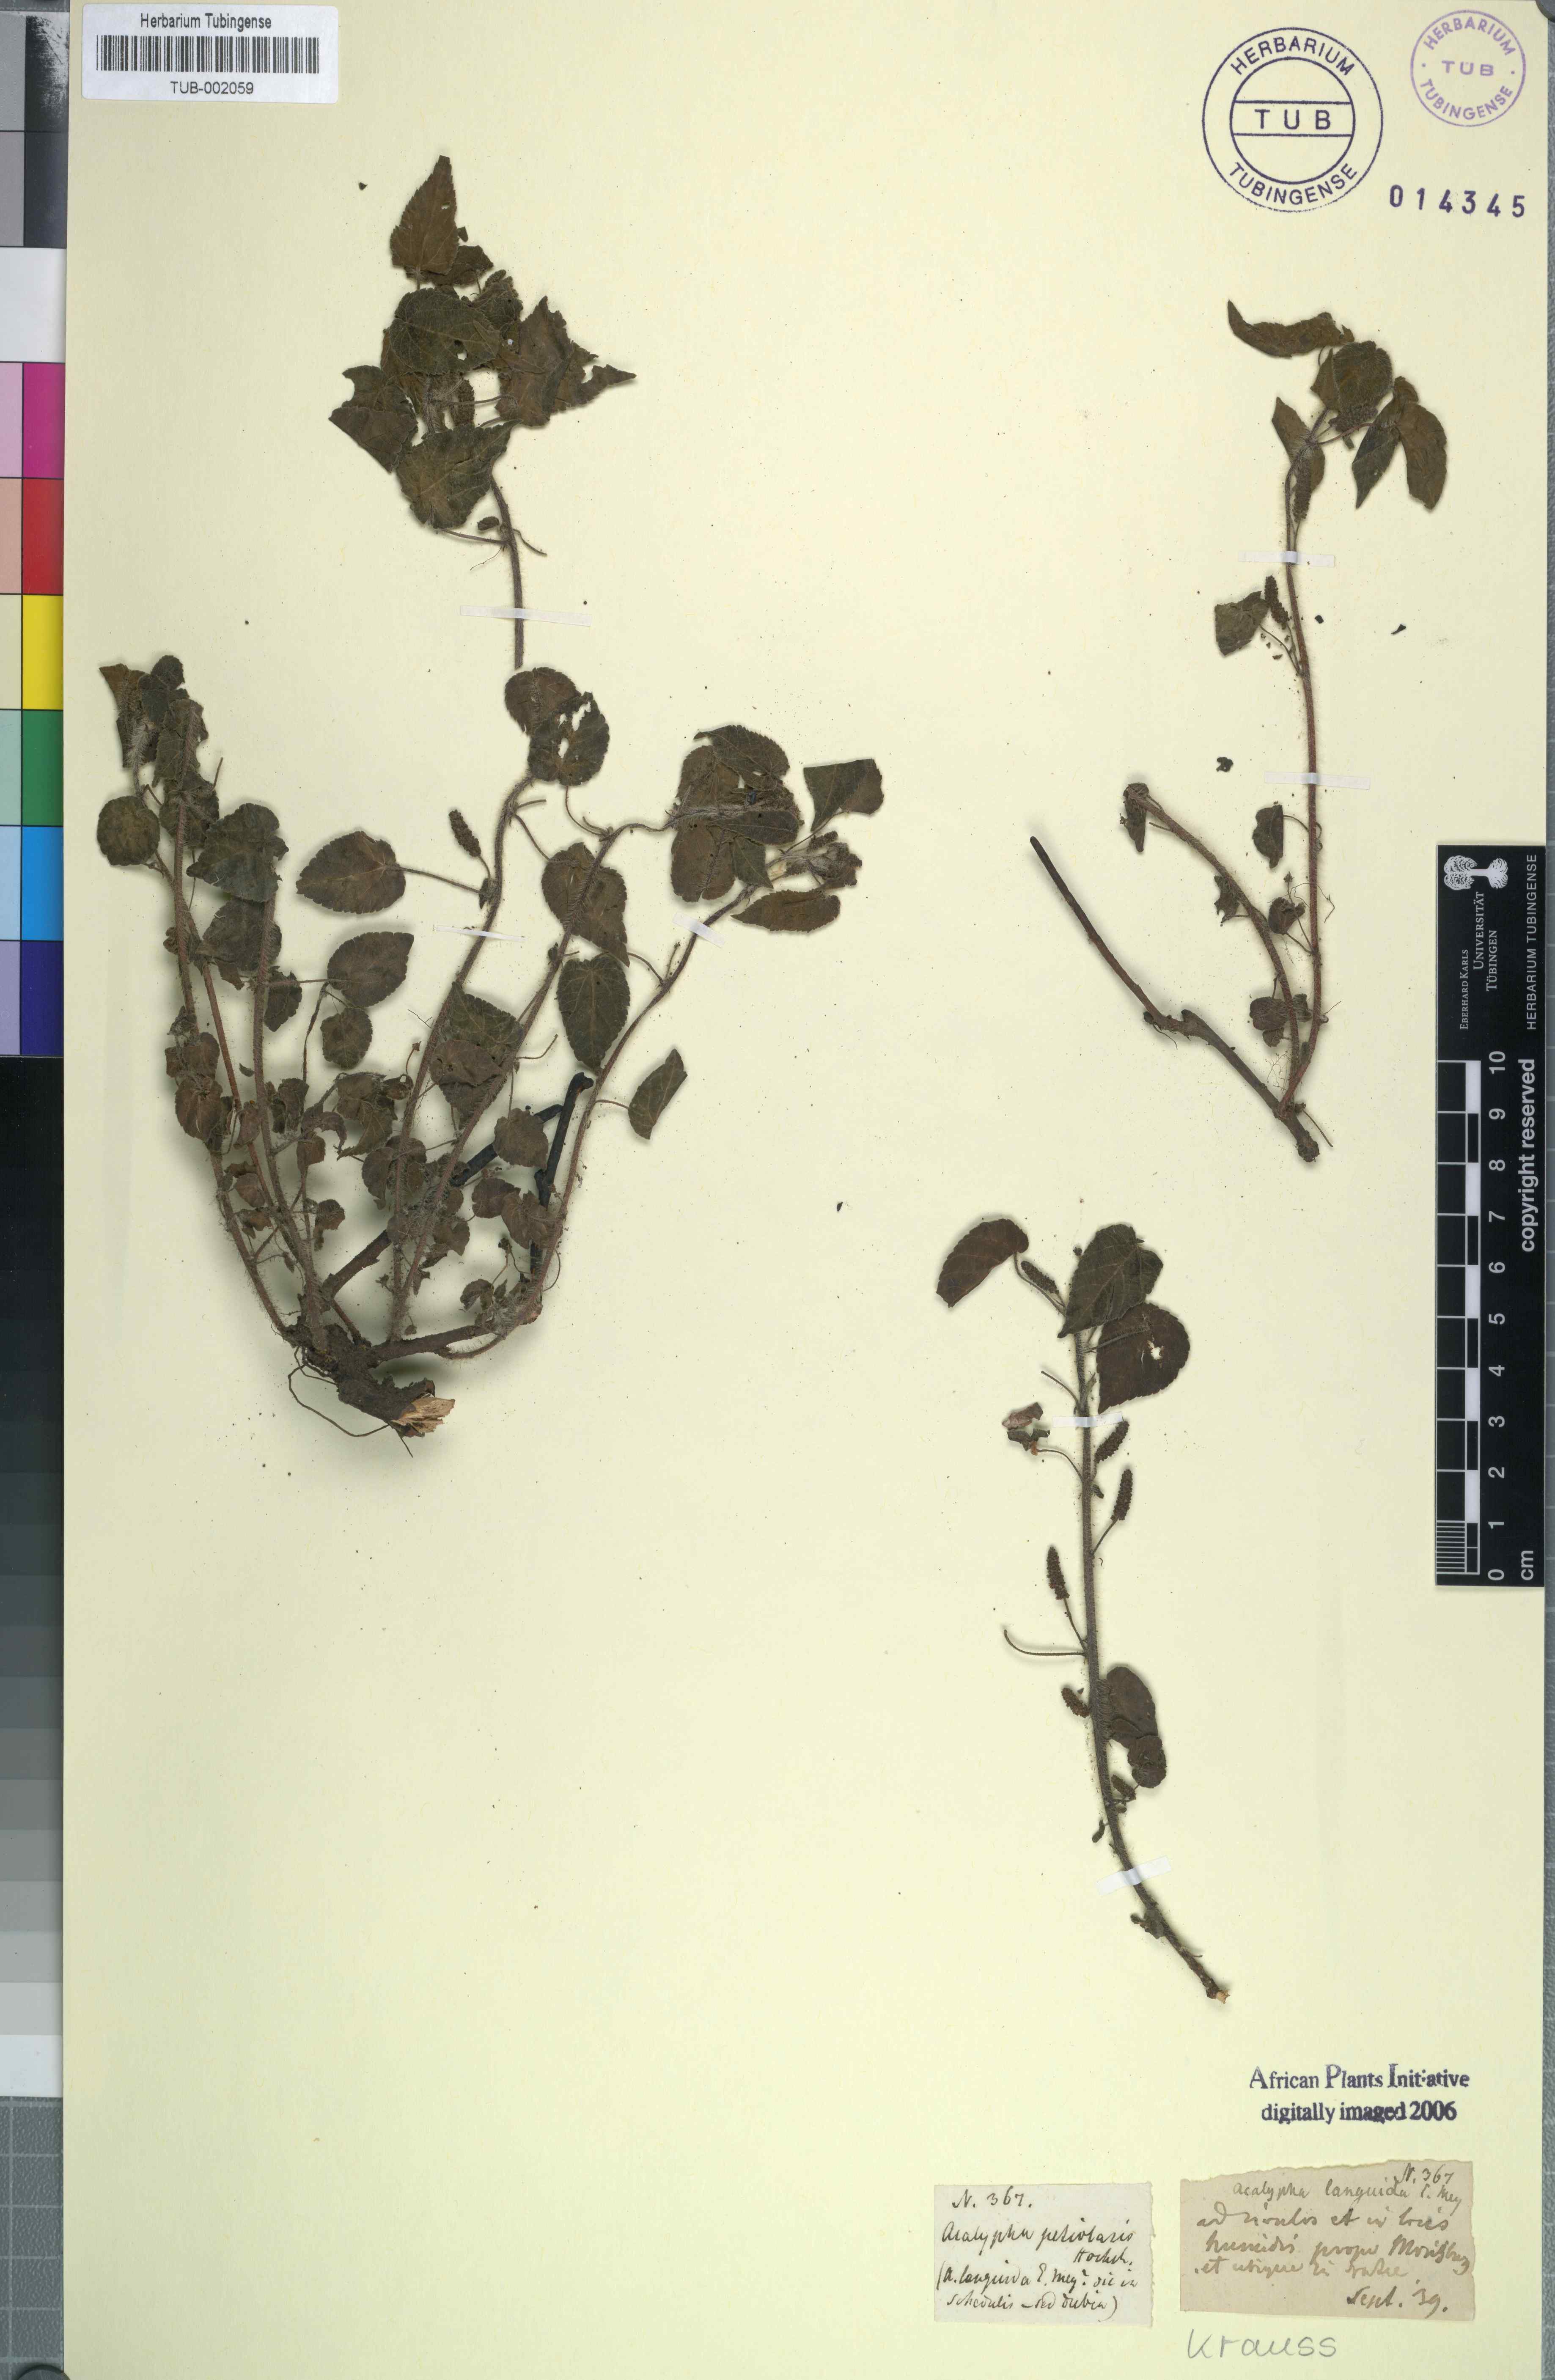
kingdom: Plantae
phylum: Tracheophyta
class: Magnoliopsida
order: Malpighiales
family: Euphorbiaceae
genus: Acalypha
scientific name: Acalypha petiolaris
